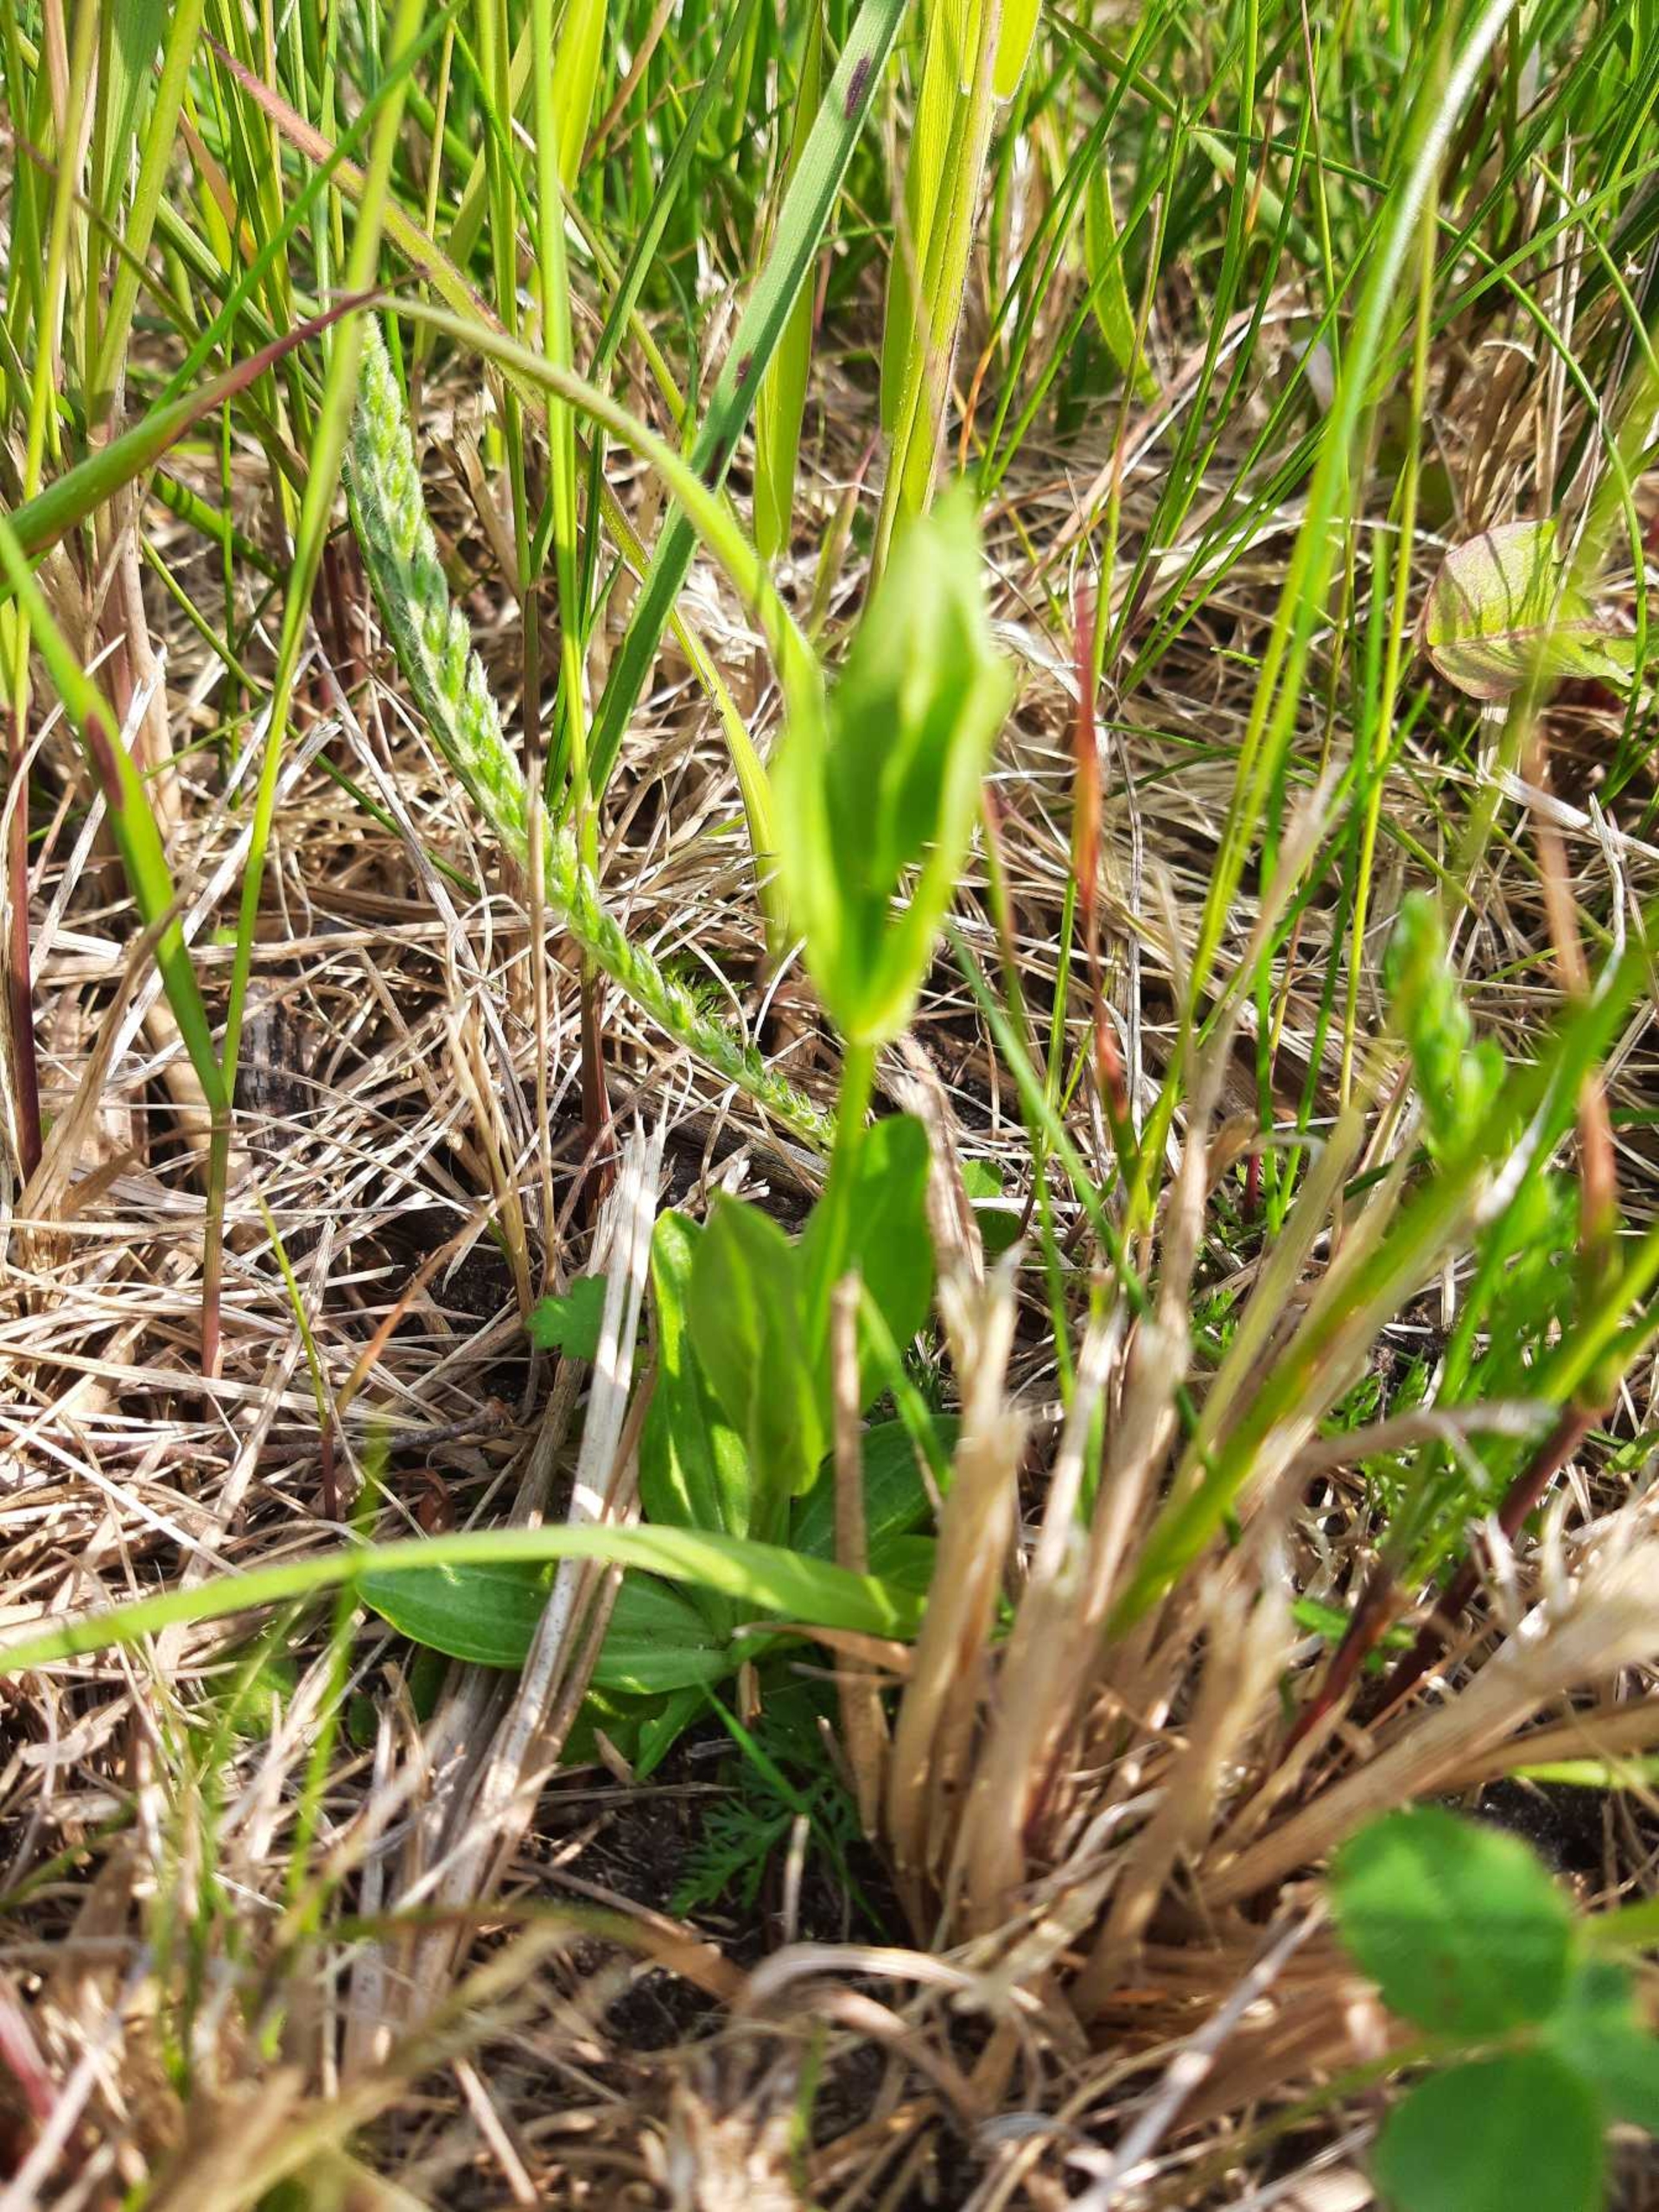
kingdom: Plantae
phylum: Tracheophyta
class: Magnoliopsida
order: Gentianales
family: Gentianaceae
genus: Centaurium
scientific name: Centaurium erythraea
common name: Mark-tusindgylden
